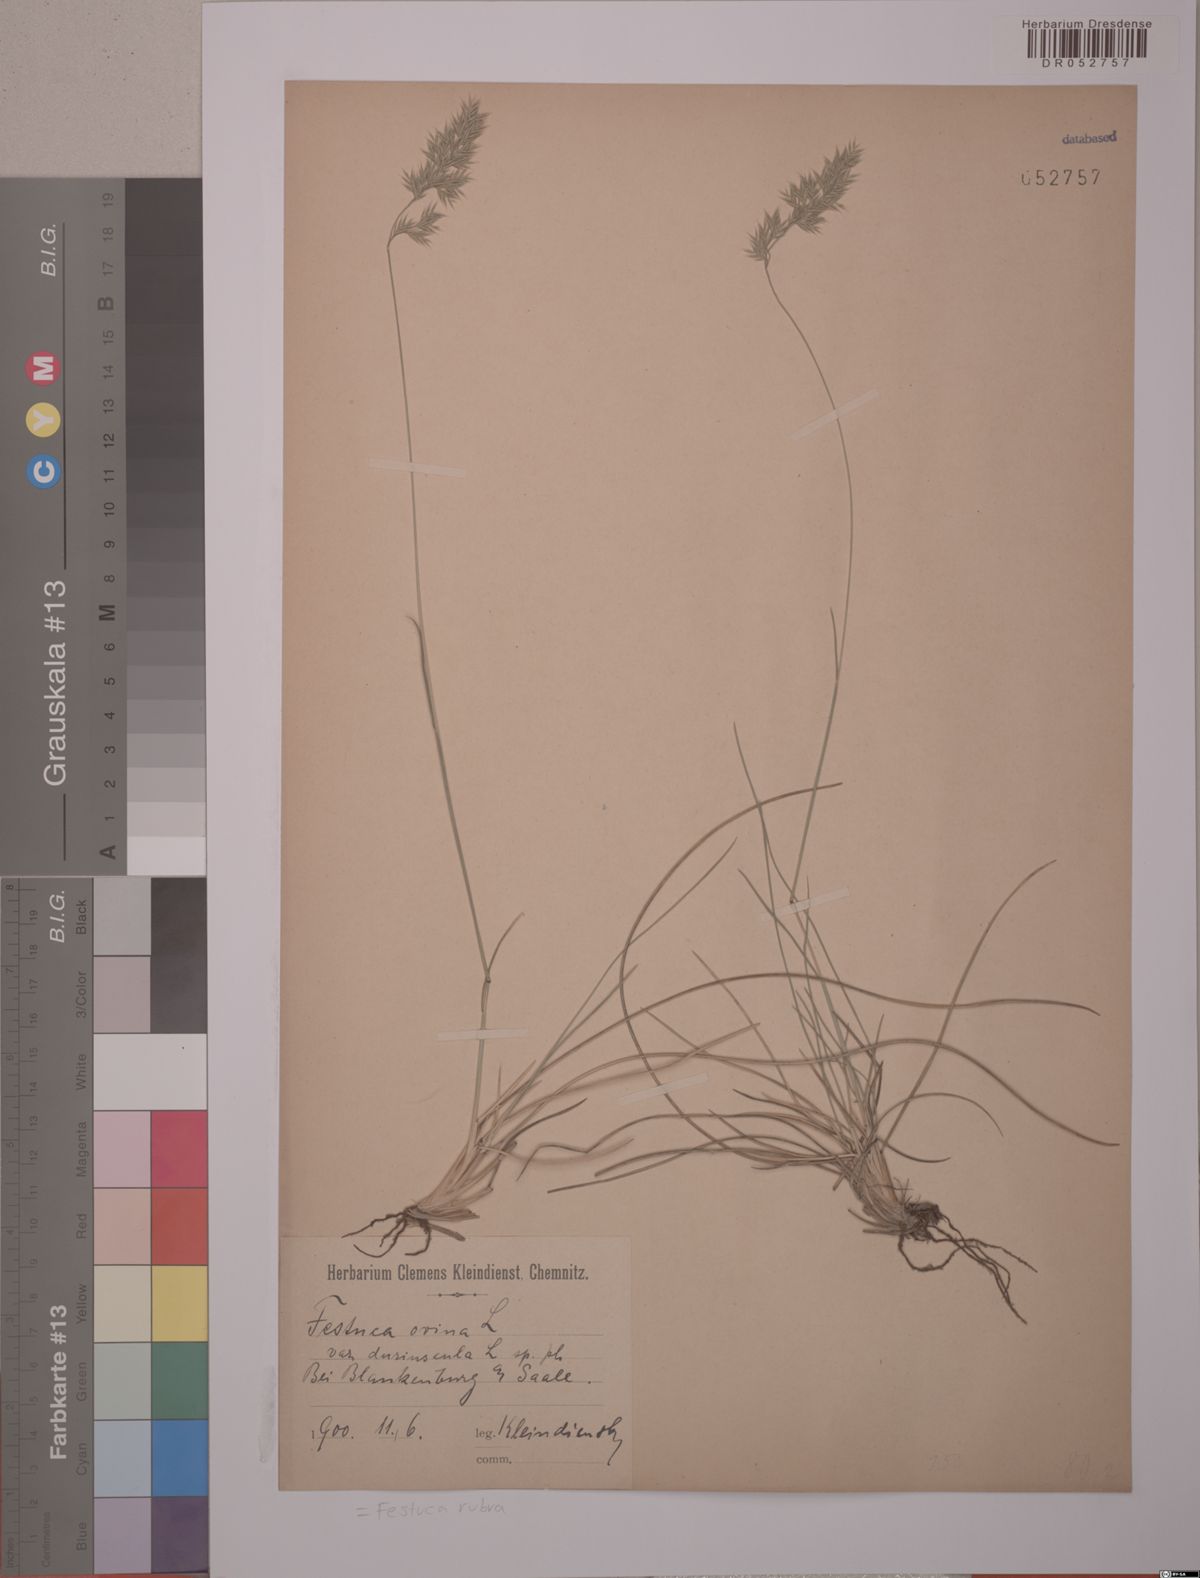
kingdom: Plantae
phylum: Tracheophyta
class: Liliopsida
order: Poales
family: Poaceae
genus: Festuca
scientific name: Festuca rubra
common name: Red fescue
